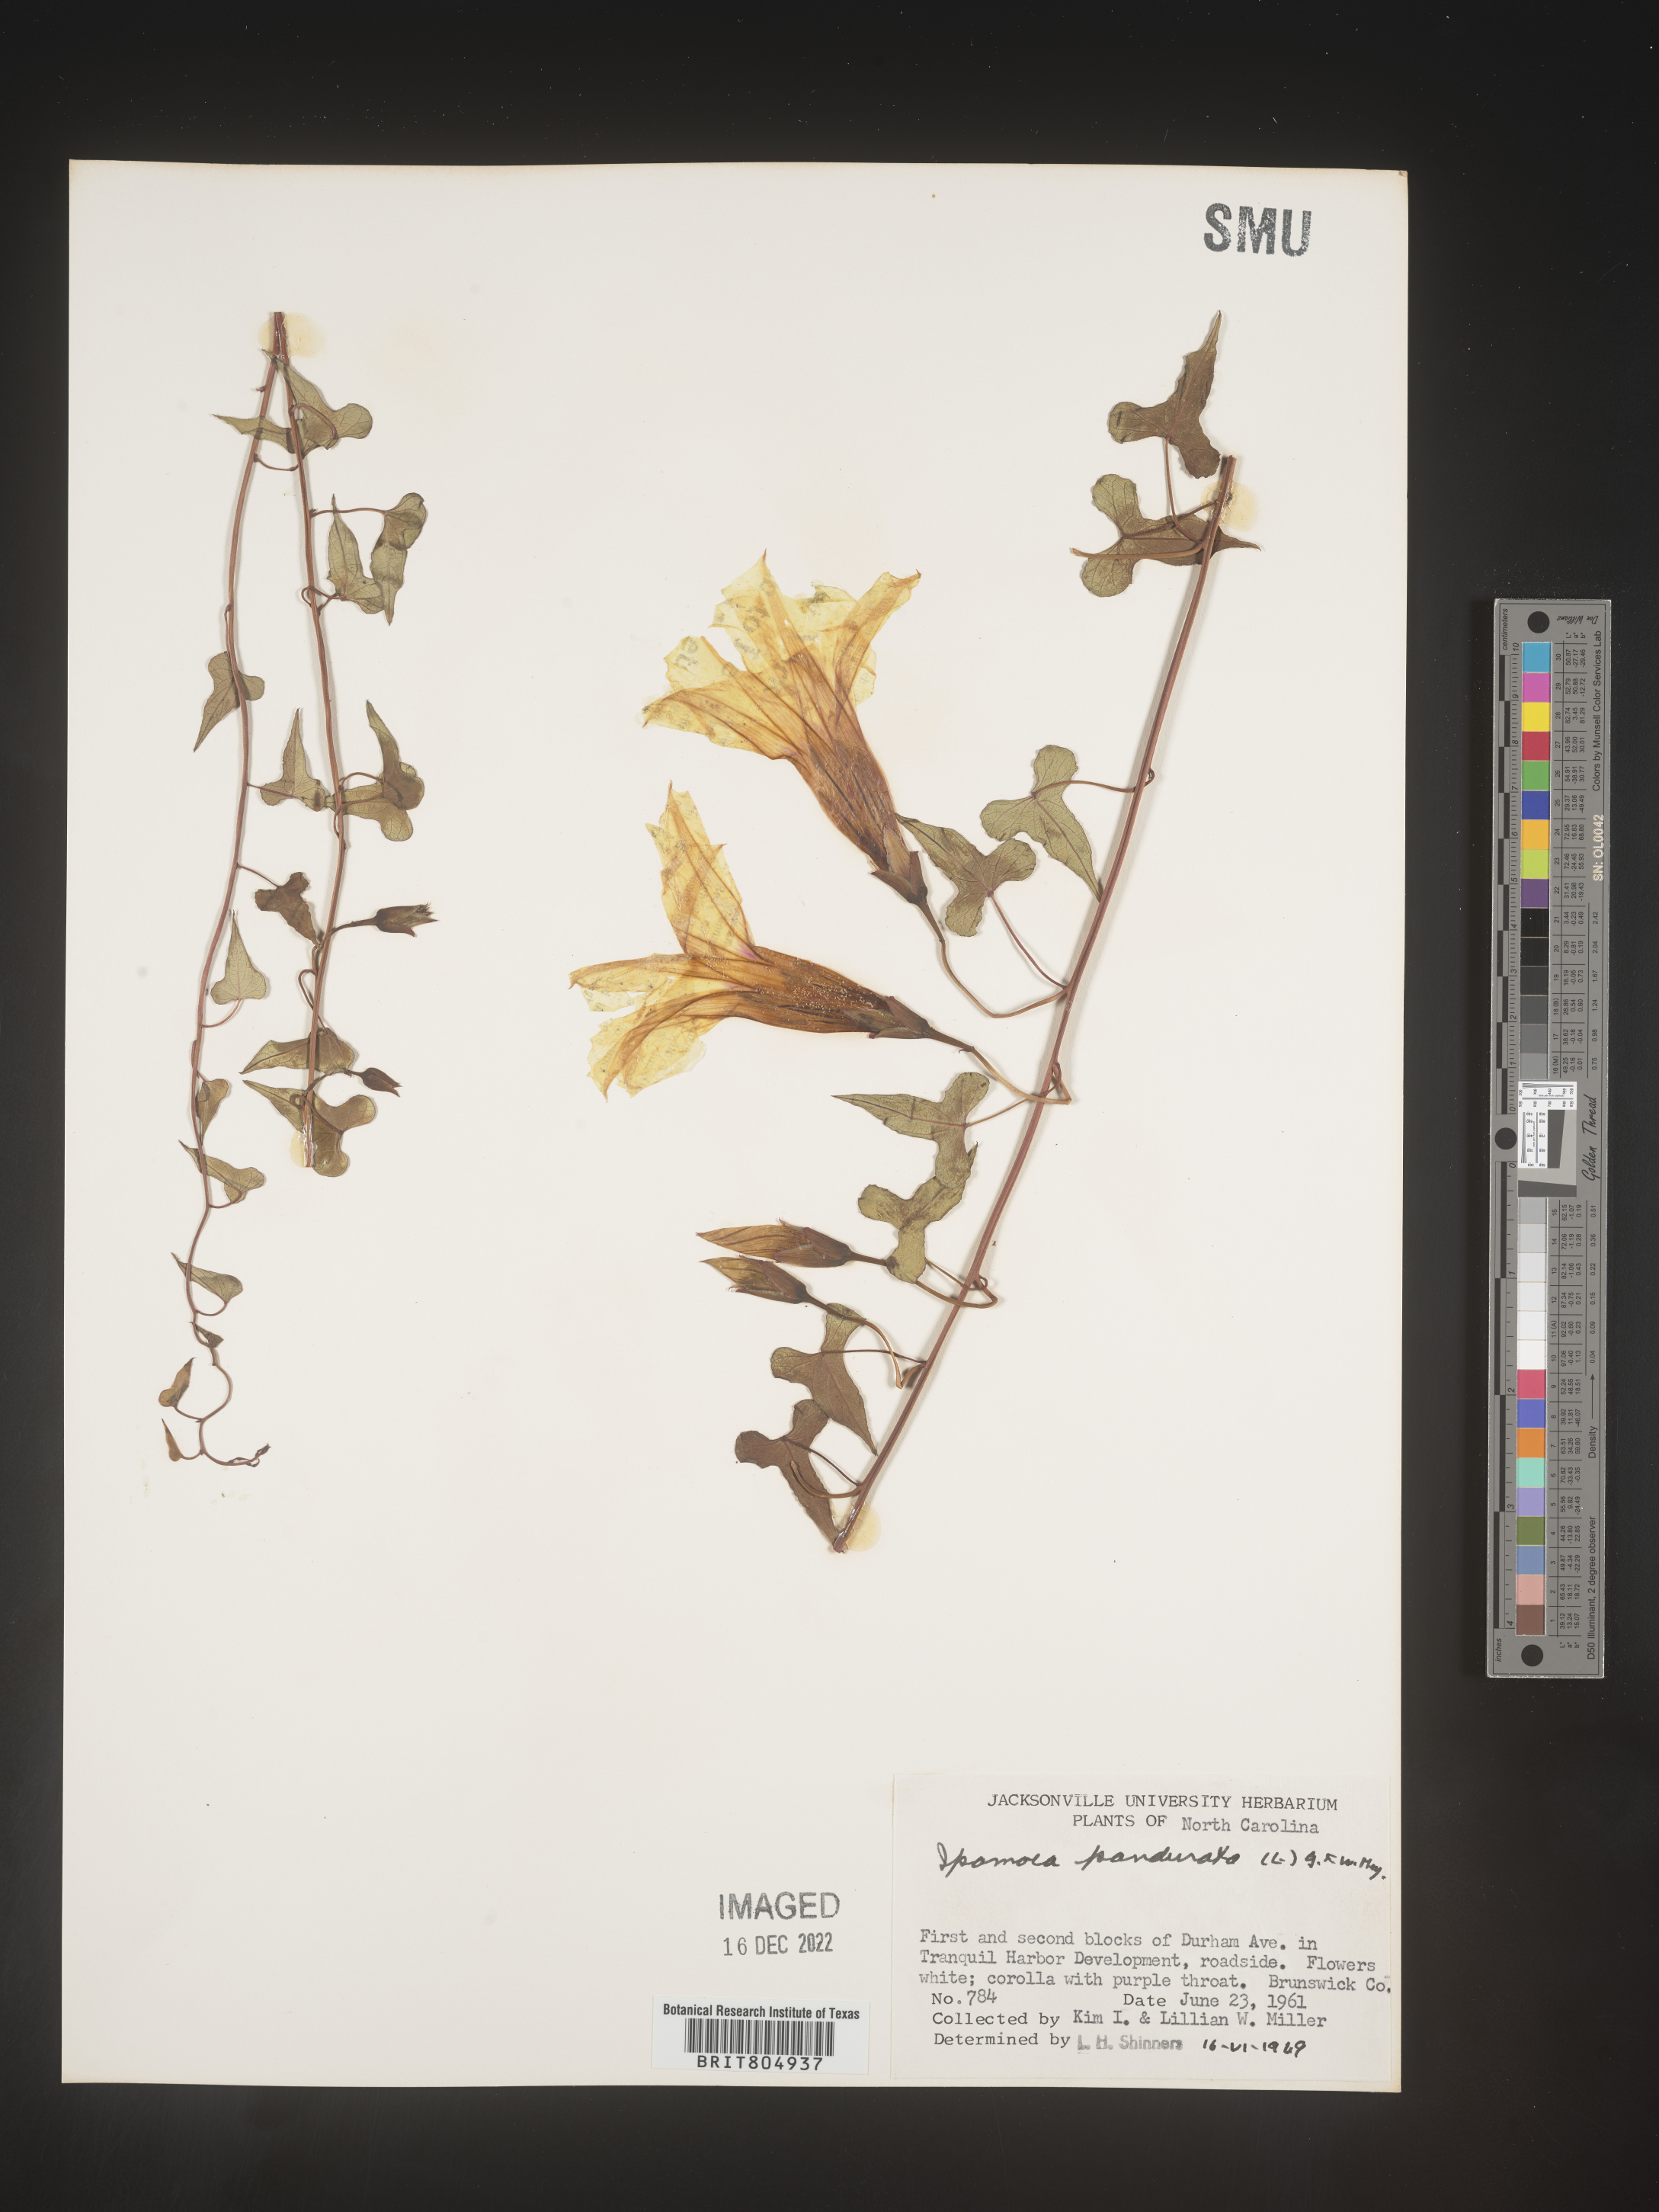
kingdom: Plantae
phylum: Tracheophyta
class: Magnoliopsida
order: Solanales
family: Convolvulaceae
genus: Ipomoea
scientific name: Ipomoea pandurata
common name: Man-of-the-earth
